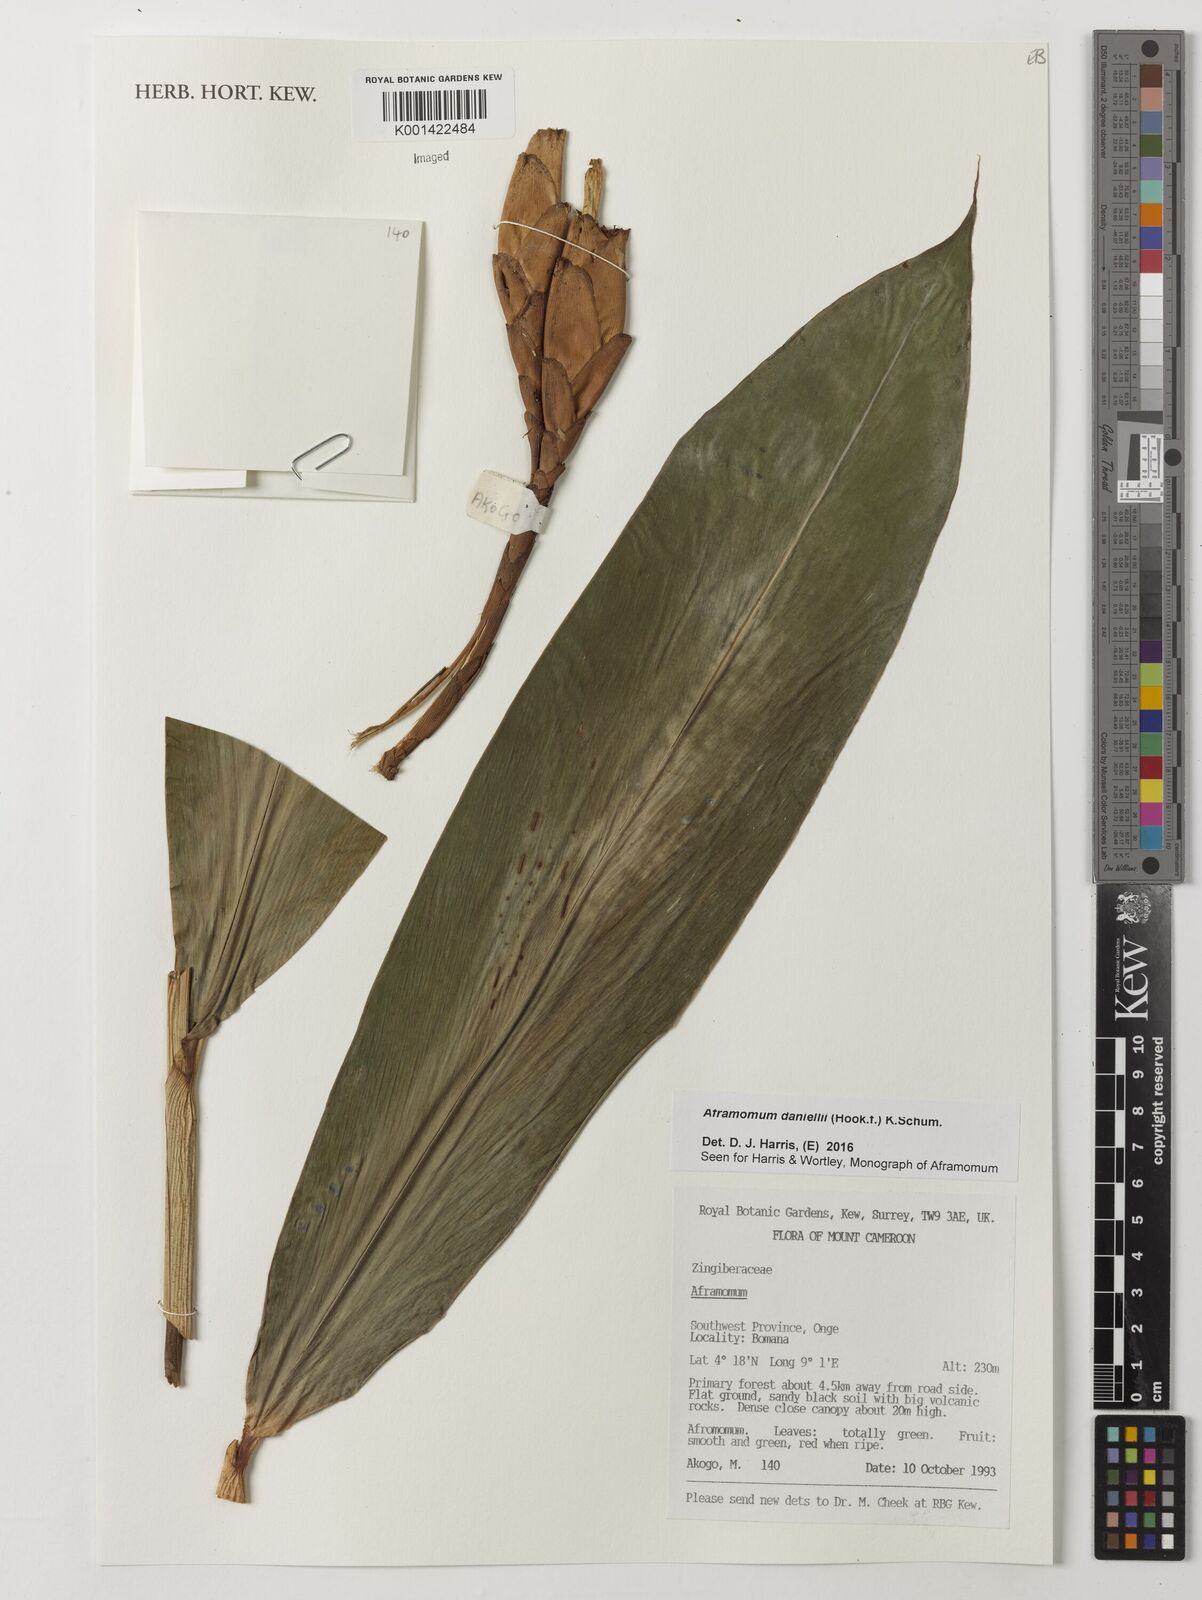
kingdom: Plantae
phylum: Tracheophyta
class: Liliopsida
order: Zingiberales
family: Zingiberaceae
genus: Aframomum
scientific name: Aframomum daniellii
